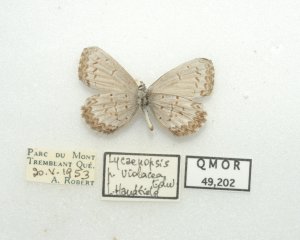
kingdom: Animalia
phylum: Arthropoda
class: Insecta
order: Lepidoptera
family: Lycaenidae
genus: Celastrina
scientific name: Celastrina lucia
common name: Northern Spring Azure
